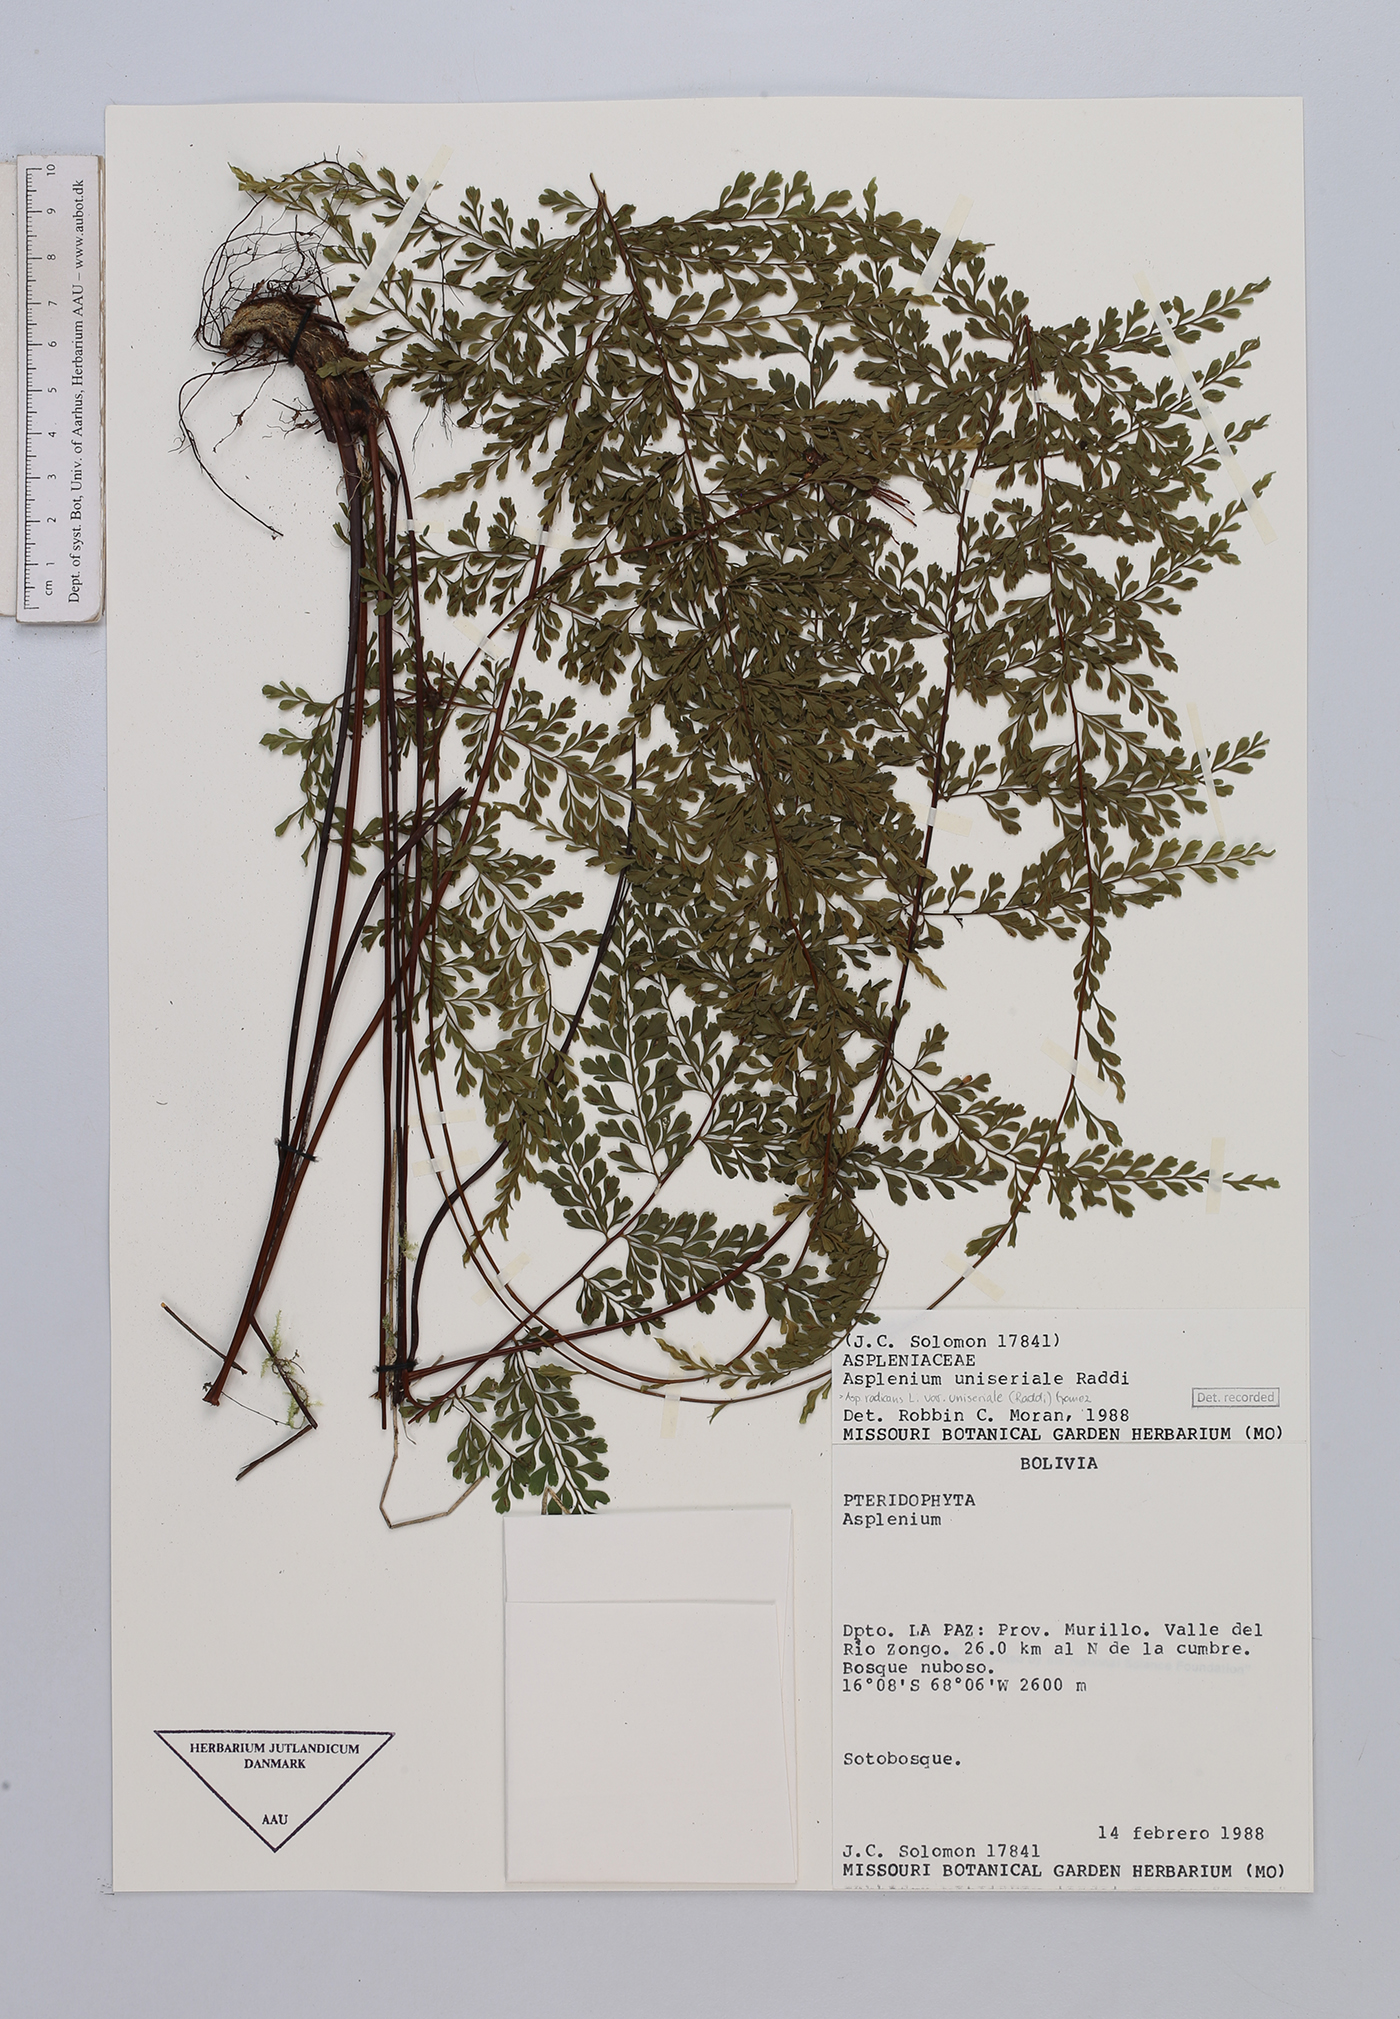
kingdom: Plantae
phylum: Tracheophyta
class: Polypodiopsida
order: Polypodiales
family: Aspleniaceae
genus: Asplenium
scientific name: Asplenium uniseriale
